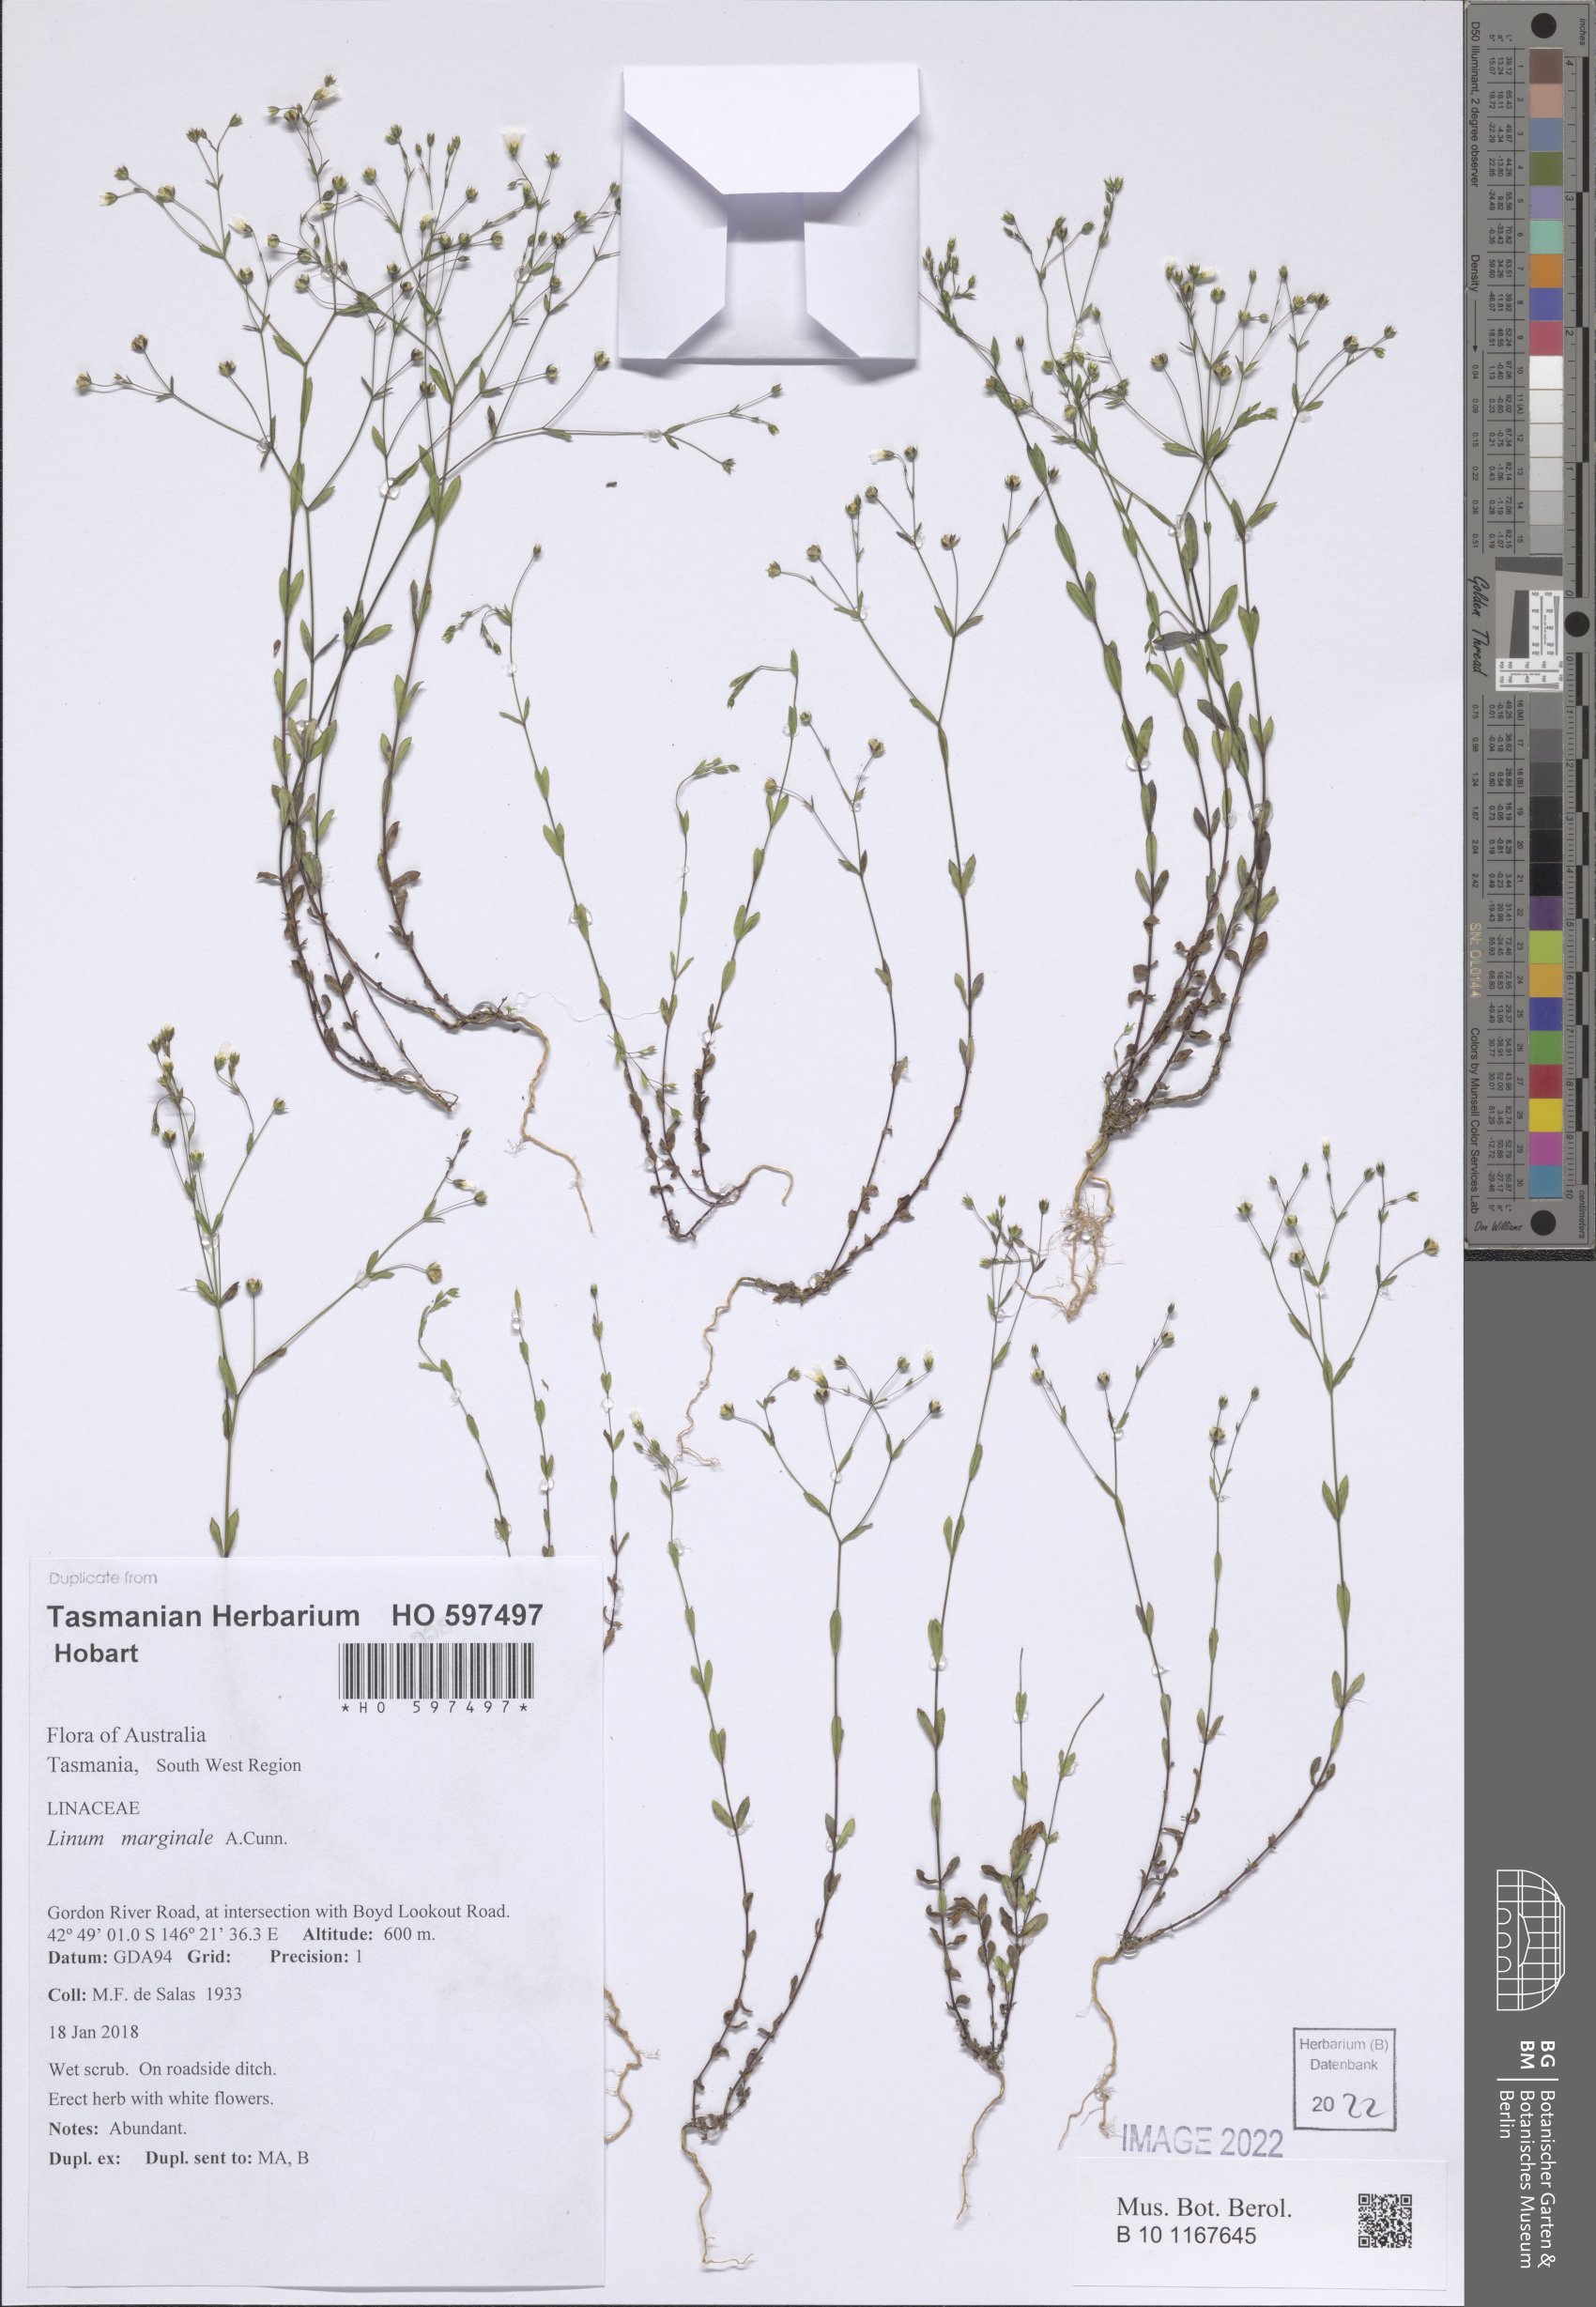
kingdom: Plantae
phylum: Tracheophyta
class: Magnoliopsida
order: Malpighiales
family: Linaceae
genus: Linum
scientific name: Linum marginale
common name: Wild flax
